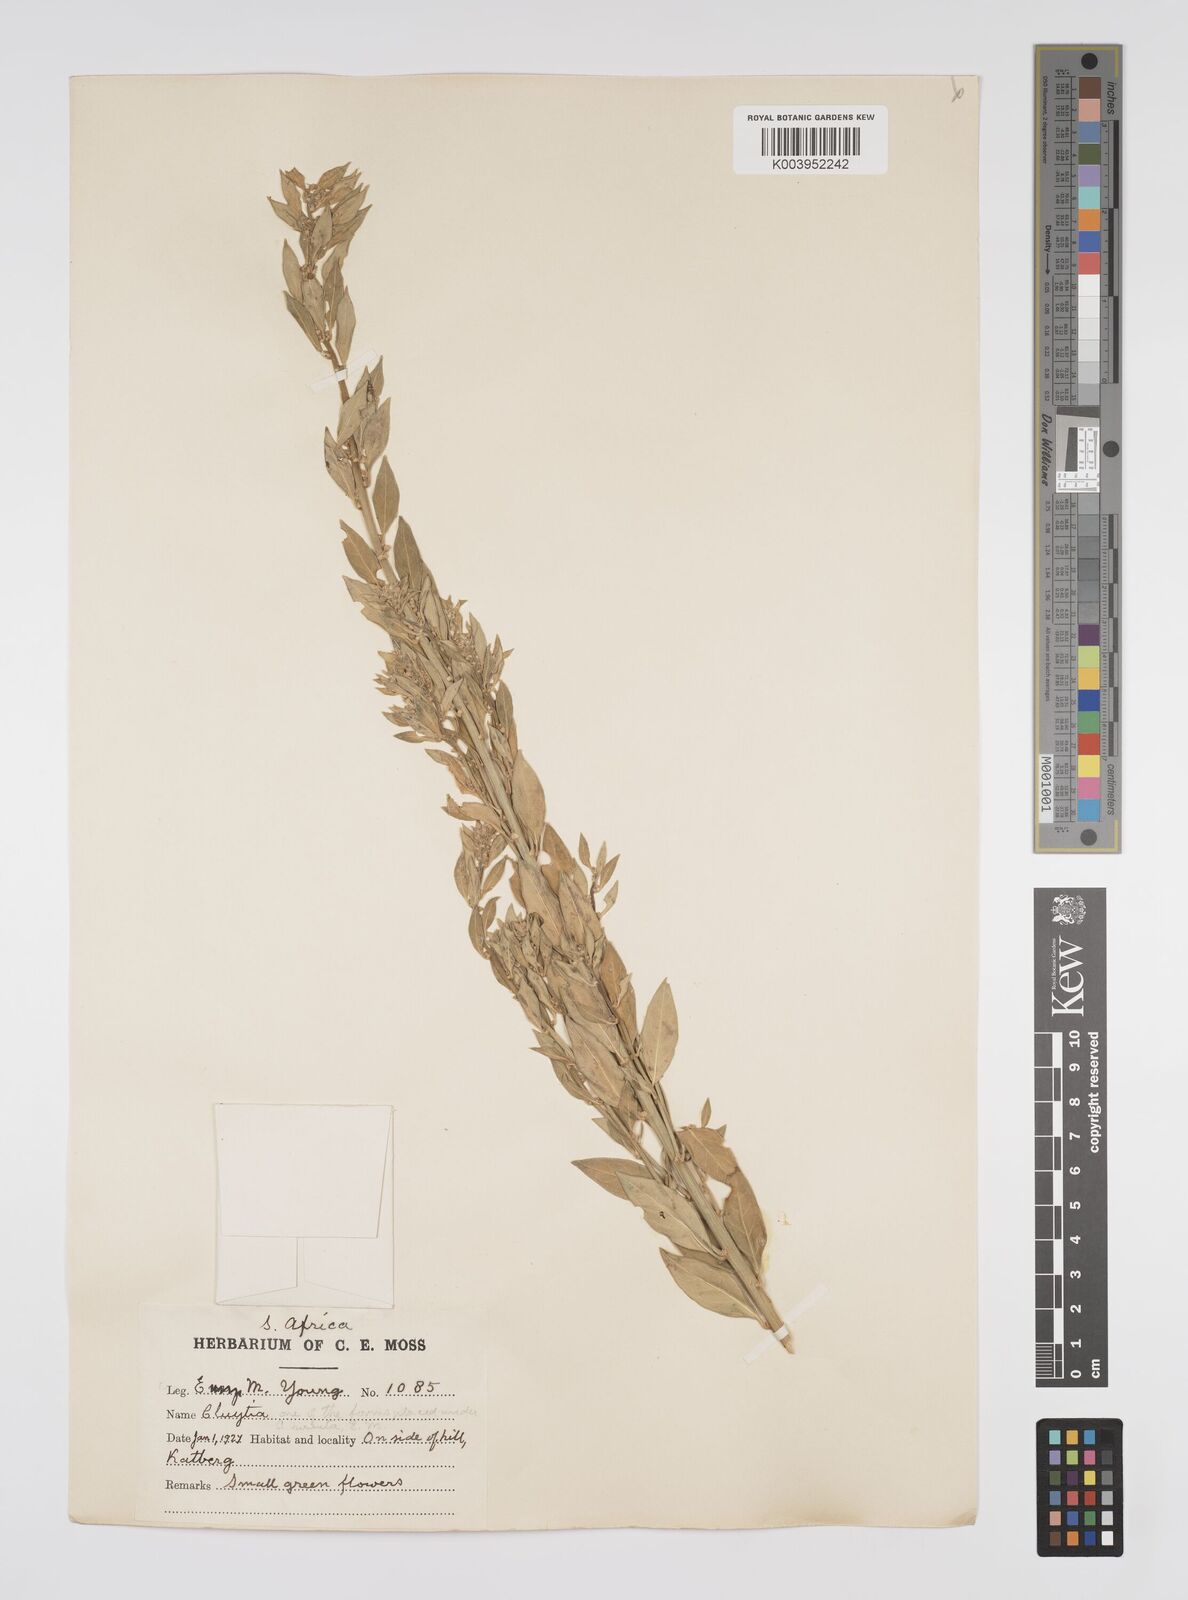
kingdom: Plantae
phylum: Tracheophyta
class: Magnoliopsida
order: Malpighiales
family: Peraceae
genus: Clutia
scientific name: Clutia affinis
